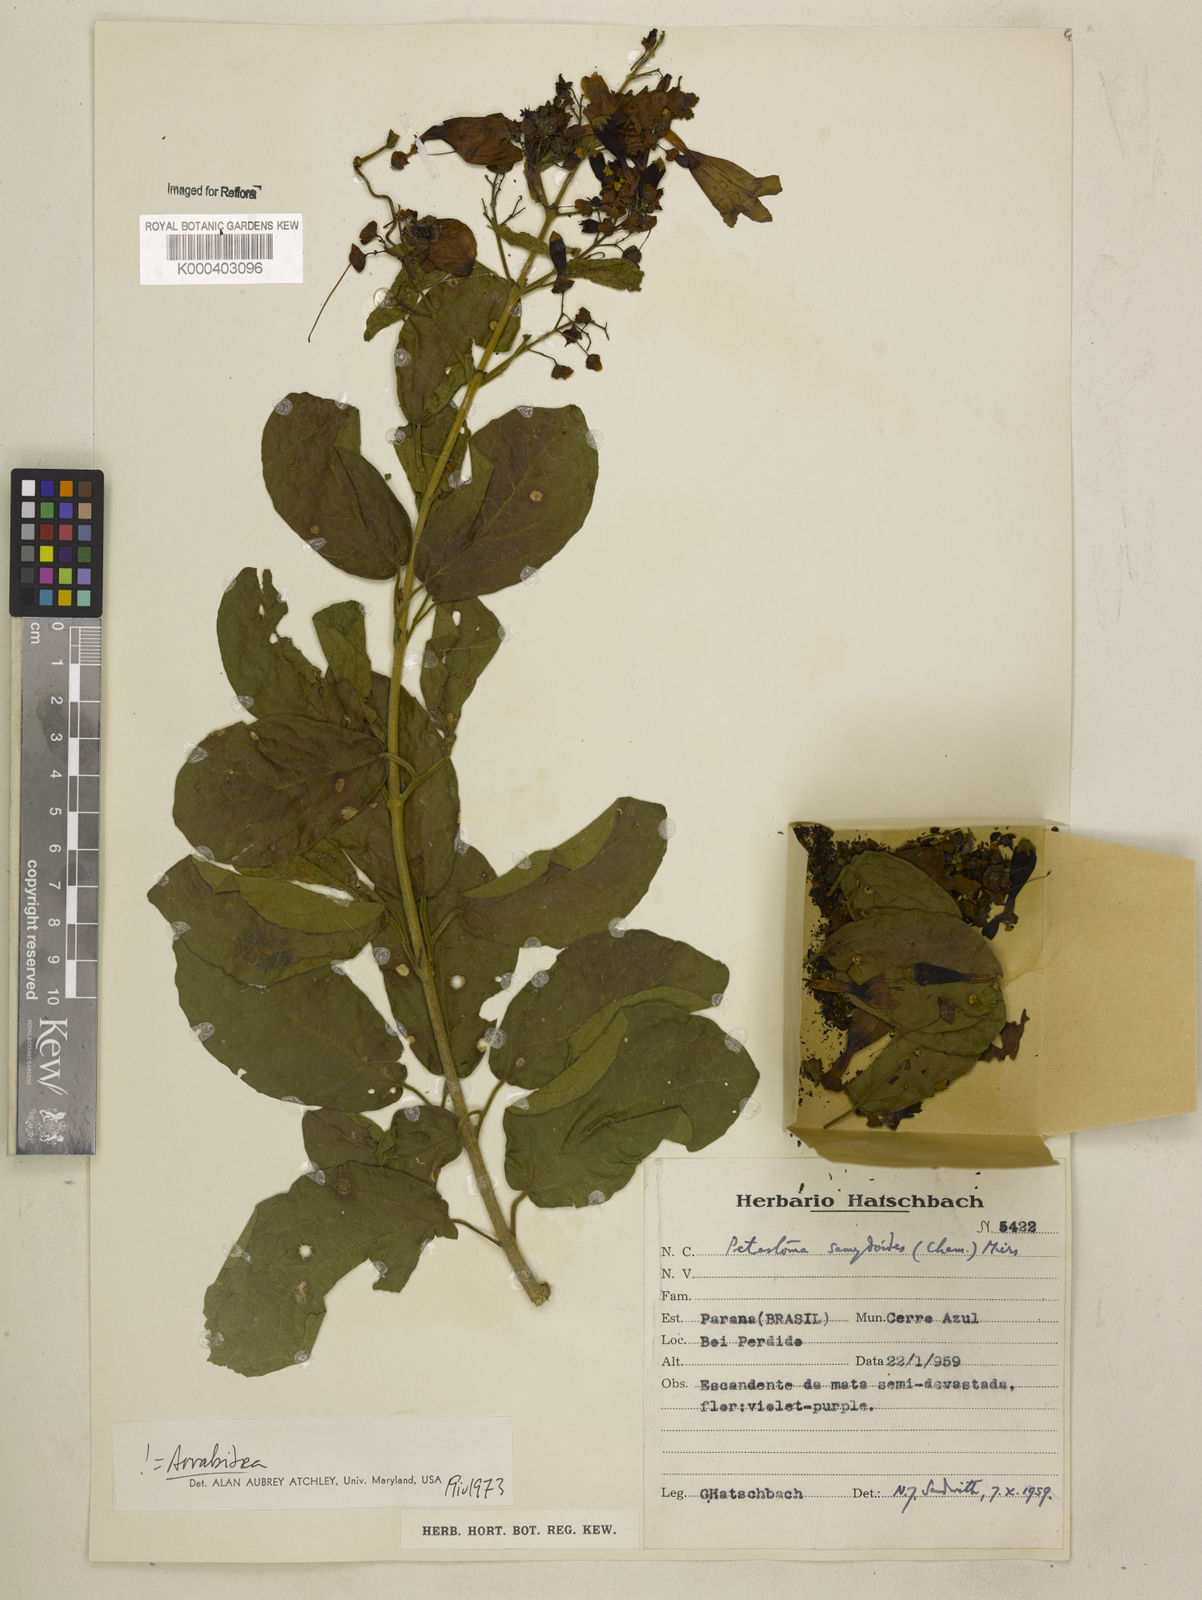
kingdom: Plantae
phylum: Tracheophyta
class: Magnoliopsida
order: Lamiales
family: Bignoniaceae
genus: Fridericia
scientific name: Fridericia samydoides
